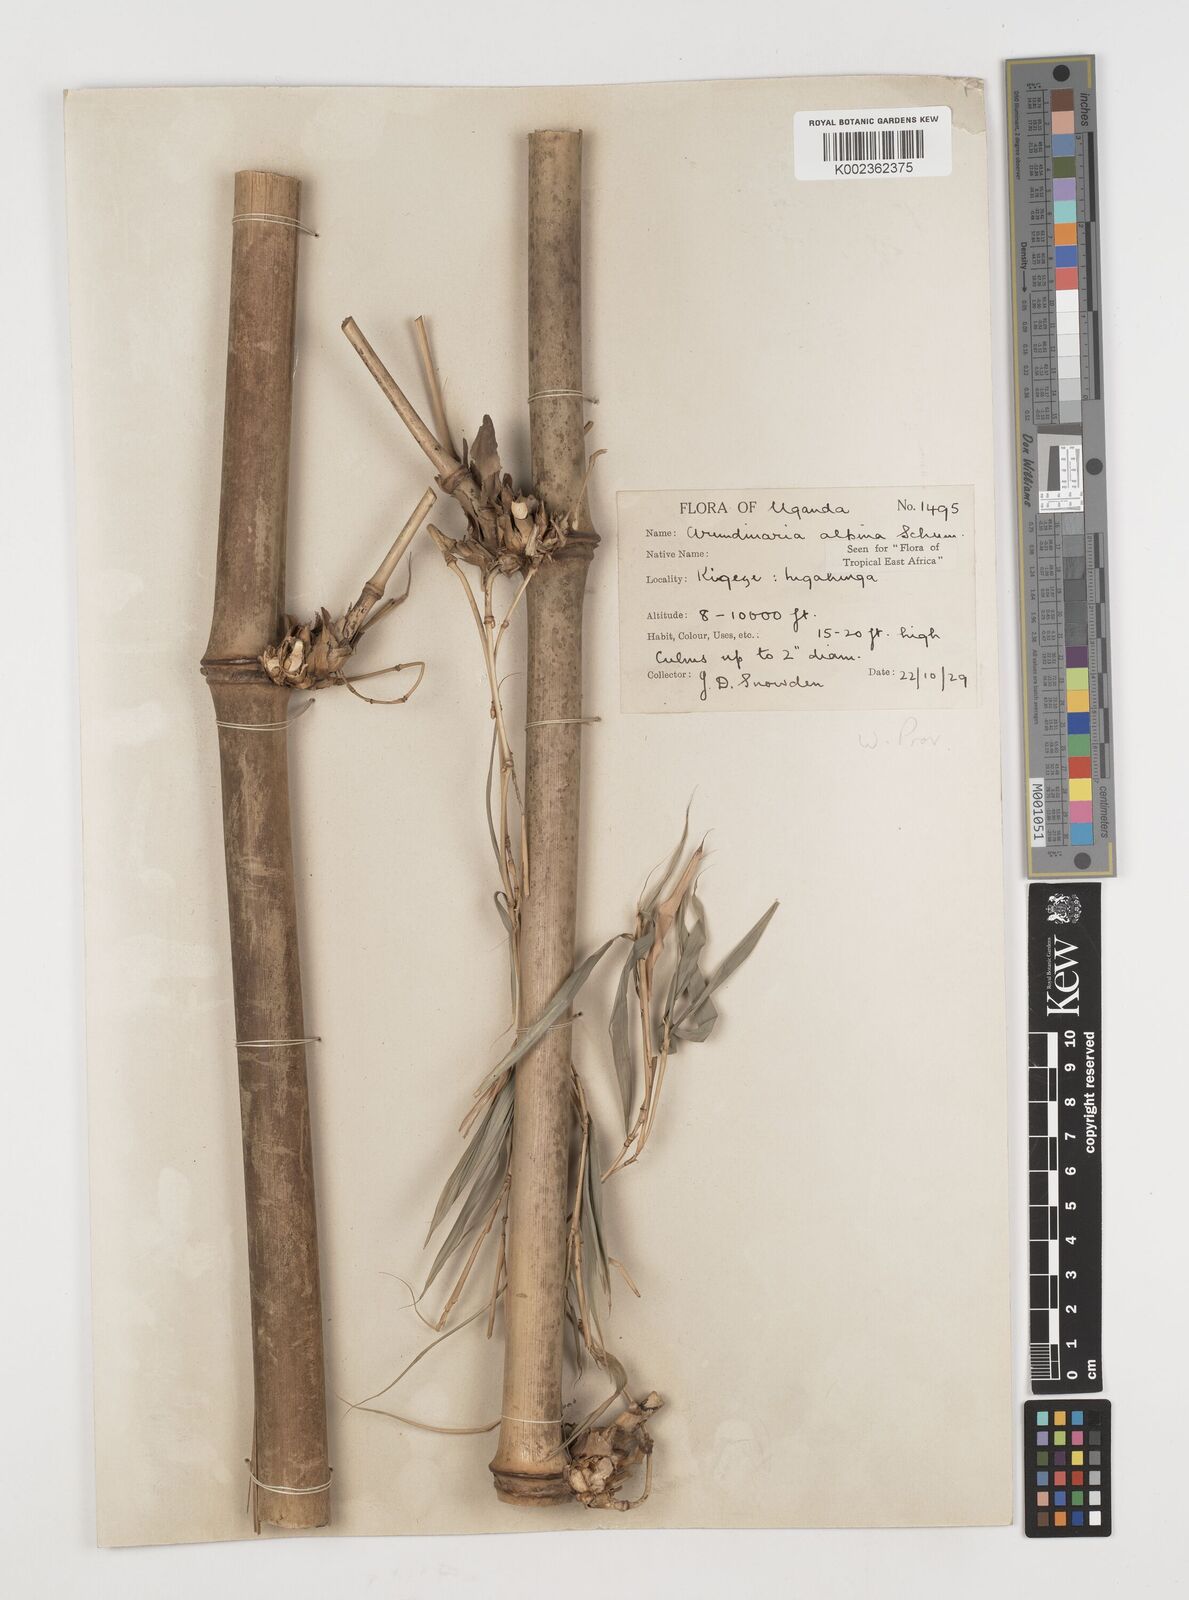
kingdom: Plantae
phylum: Tracheophyta
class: Liliopsida
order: Poales
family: Poaceae
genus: Oldeania
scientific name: Oldeania alpina
